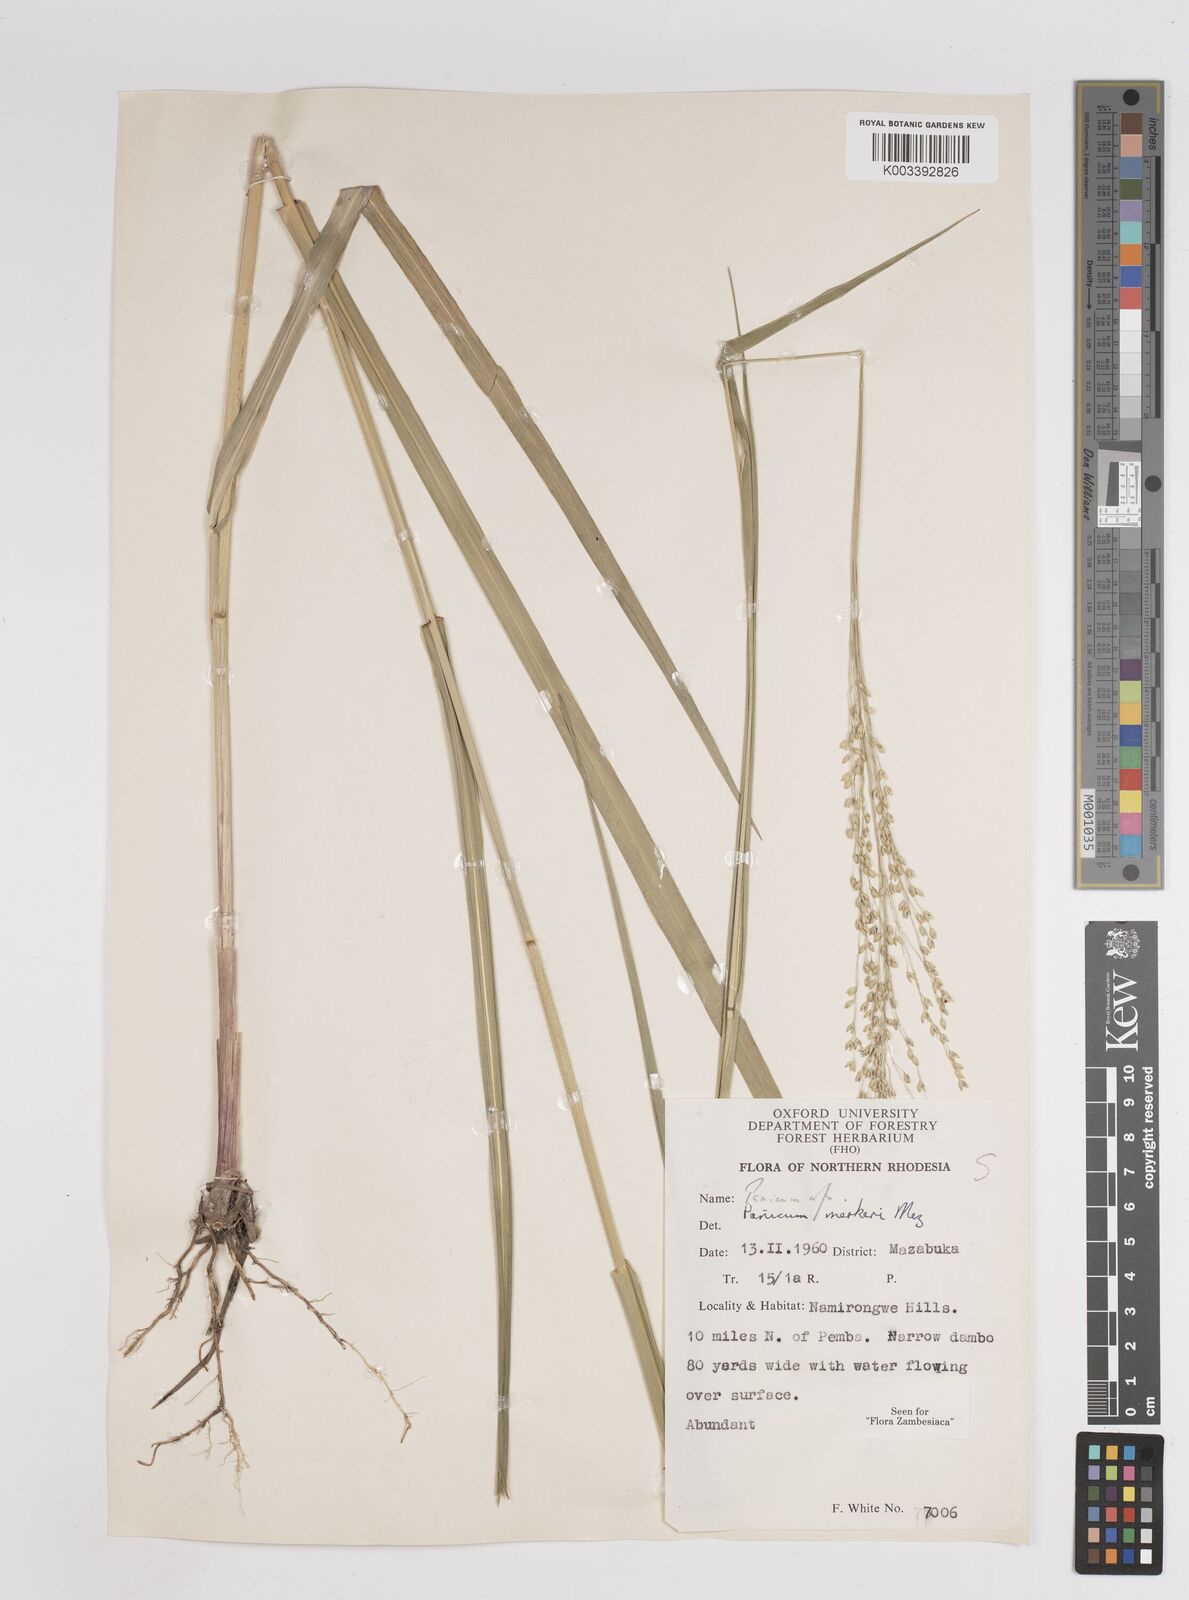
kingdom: Plantae
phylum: Tracheophyta
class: Liliopsida
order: Poales
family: Poaceae
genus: Panicum
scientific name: Panicum merkeri
